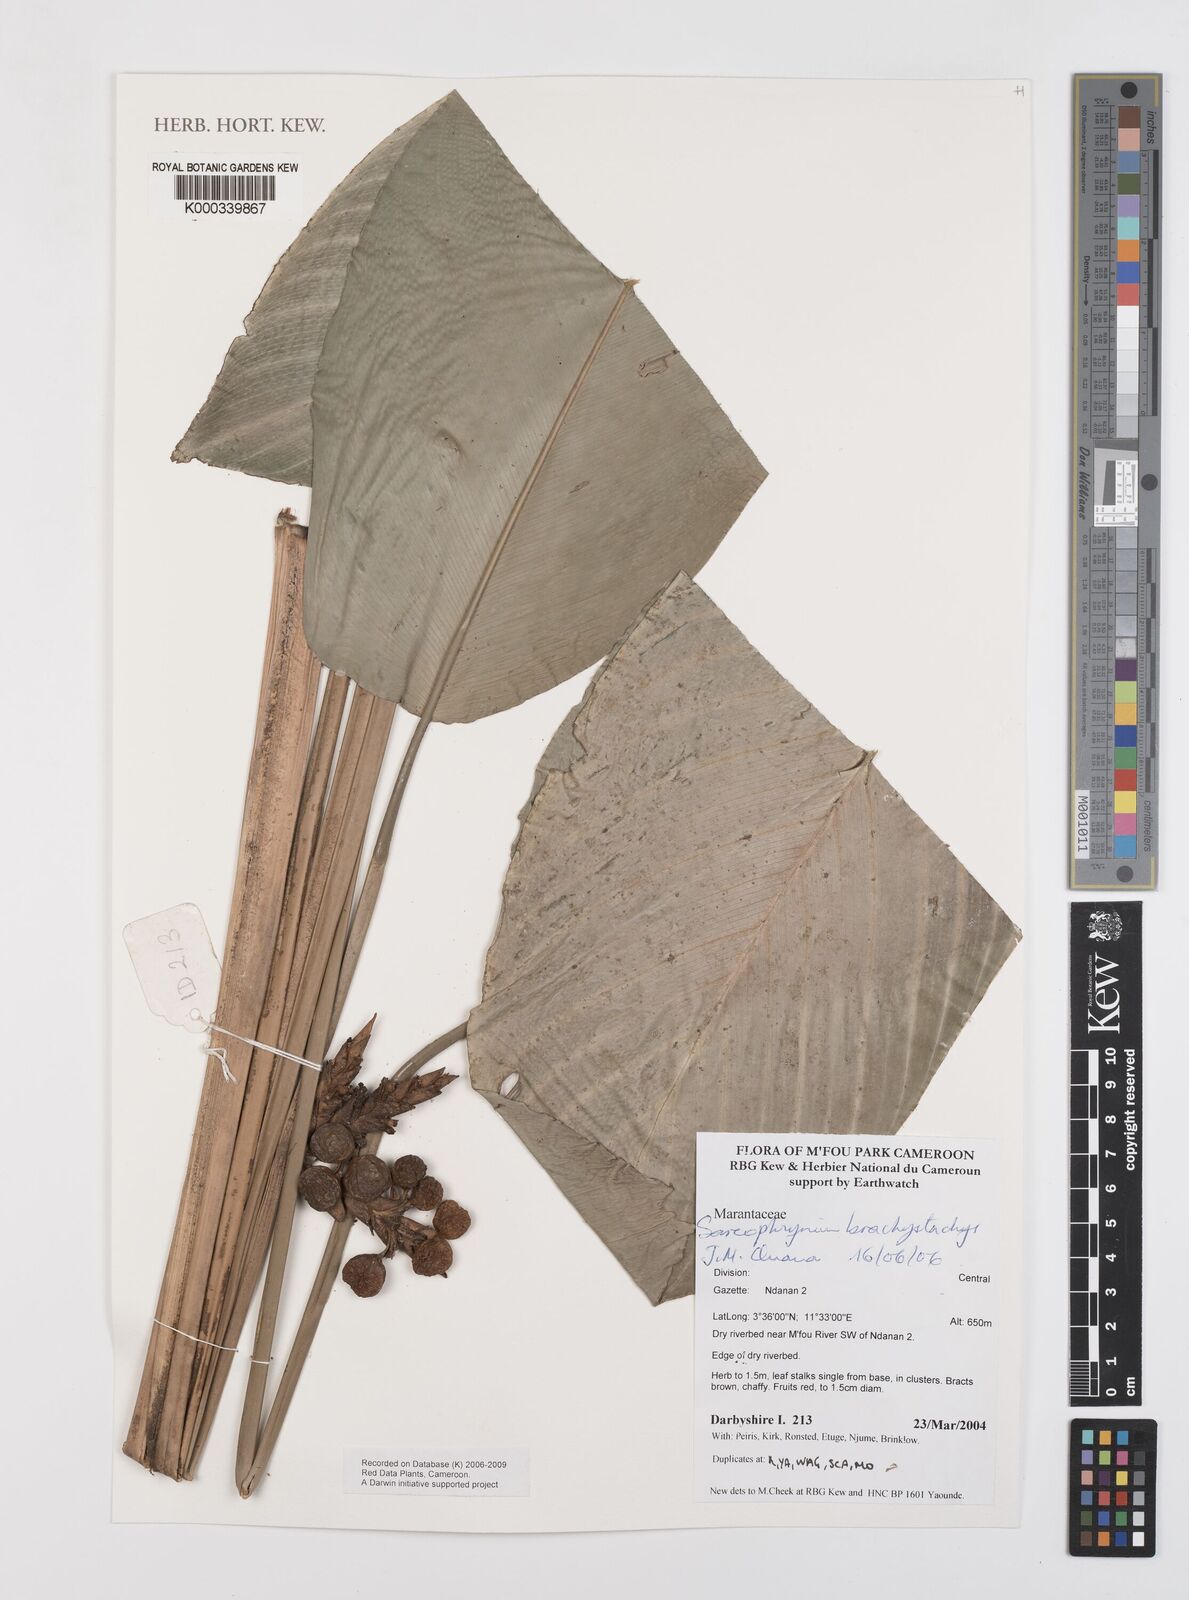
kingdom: Plantae
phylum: Tracheophyta
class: Liliopsida
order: Zingiberales
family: Marantaceae
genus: Sarcophrynium
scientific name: Sarcophrynium
